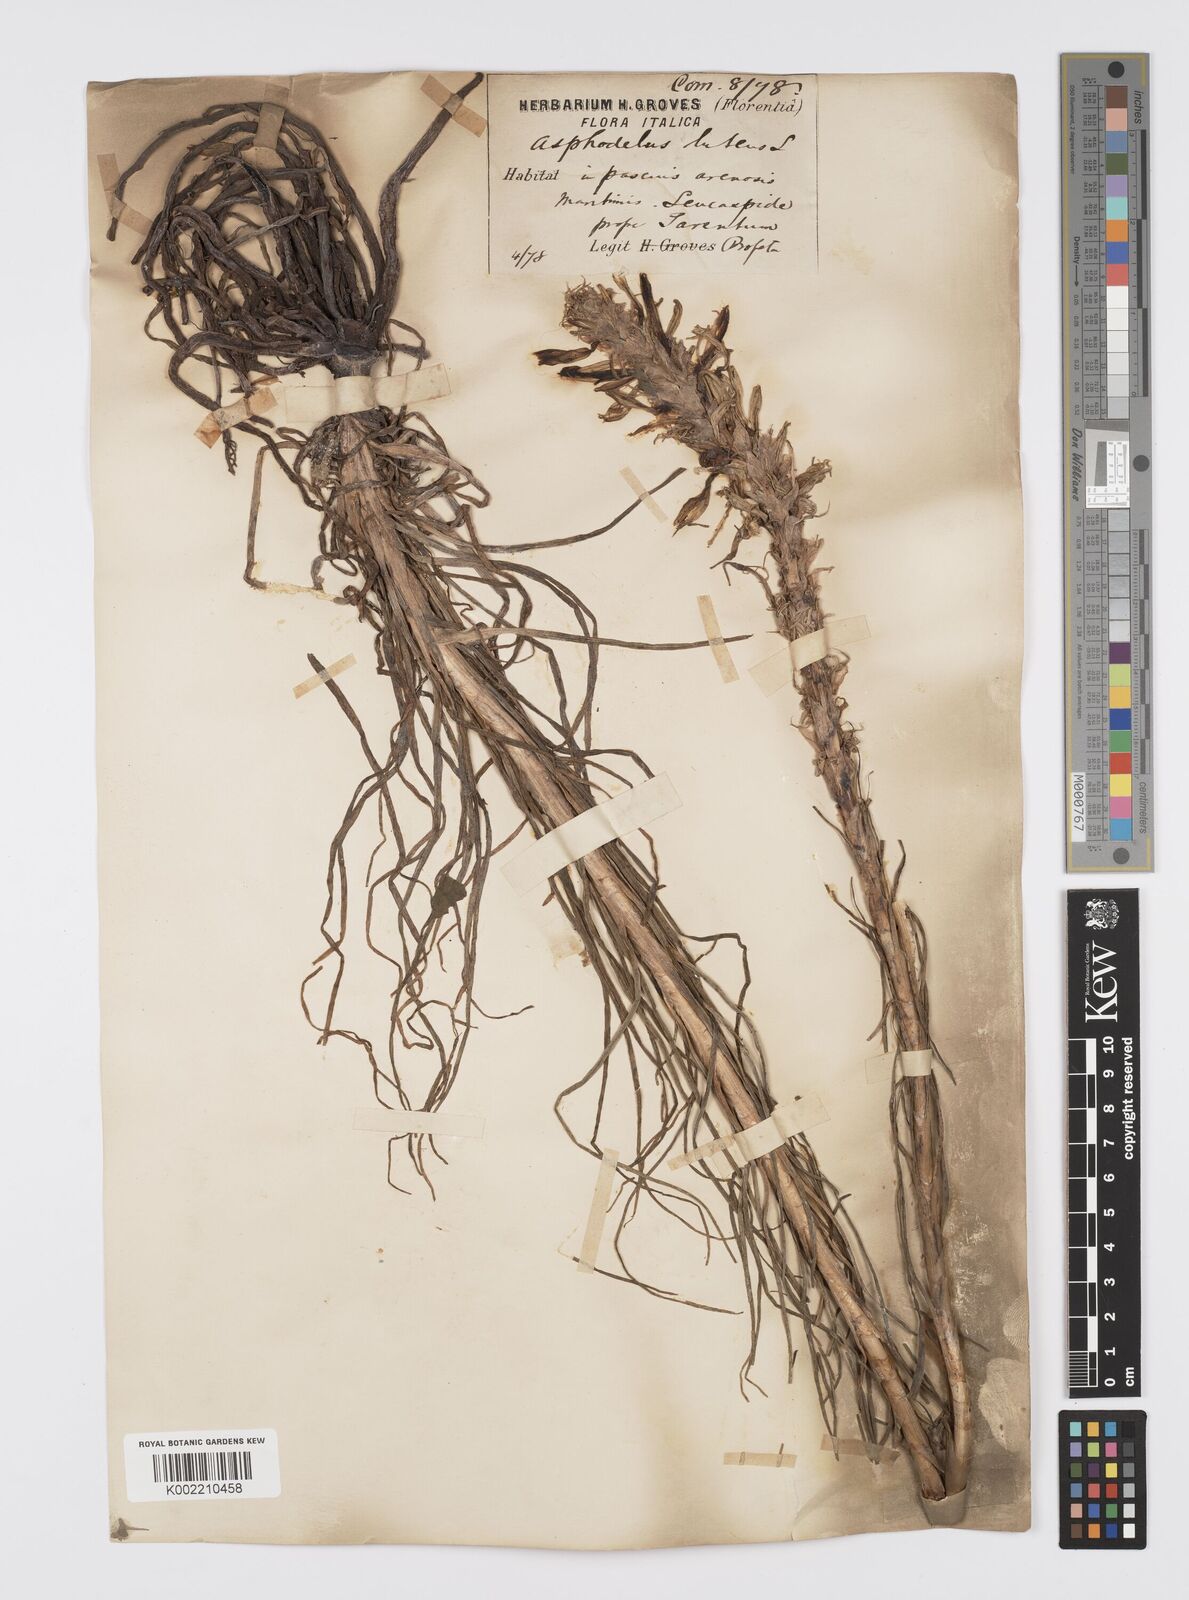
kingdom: Plantae
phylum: Tracheophyta
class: Liliopsida
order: Asparagales
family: Asphodelaceae
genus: Asphodeline
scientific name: Asphodeline lutea
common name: Yellow asphodel
